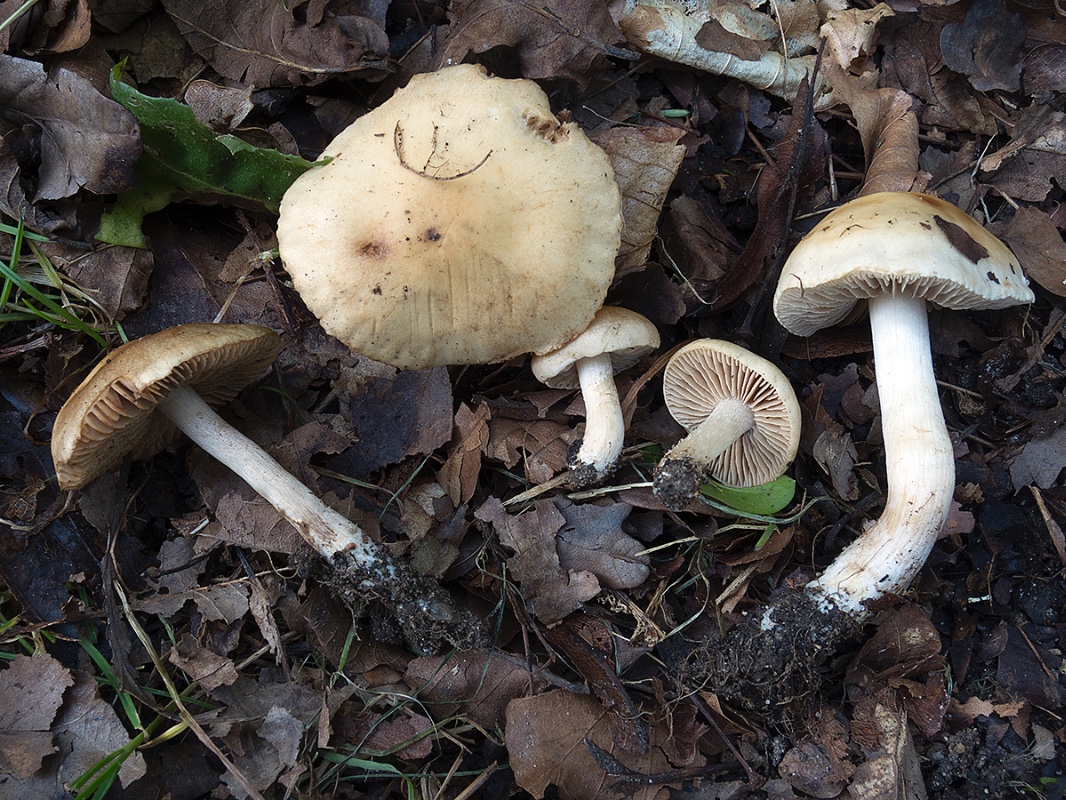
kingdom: Fungi
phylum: Basidiomycota
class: Agaricomycetes
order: Agaricales
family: Hymenogastraceae
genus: Hebeloma
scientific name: Hebeloma sacchariolens
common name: sødtduftende tåreblad
